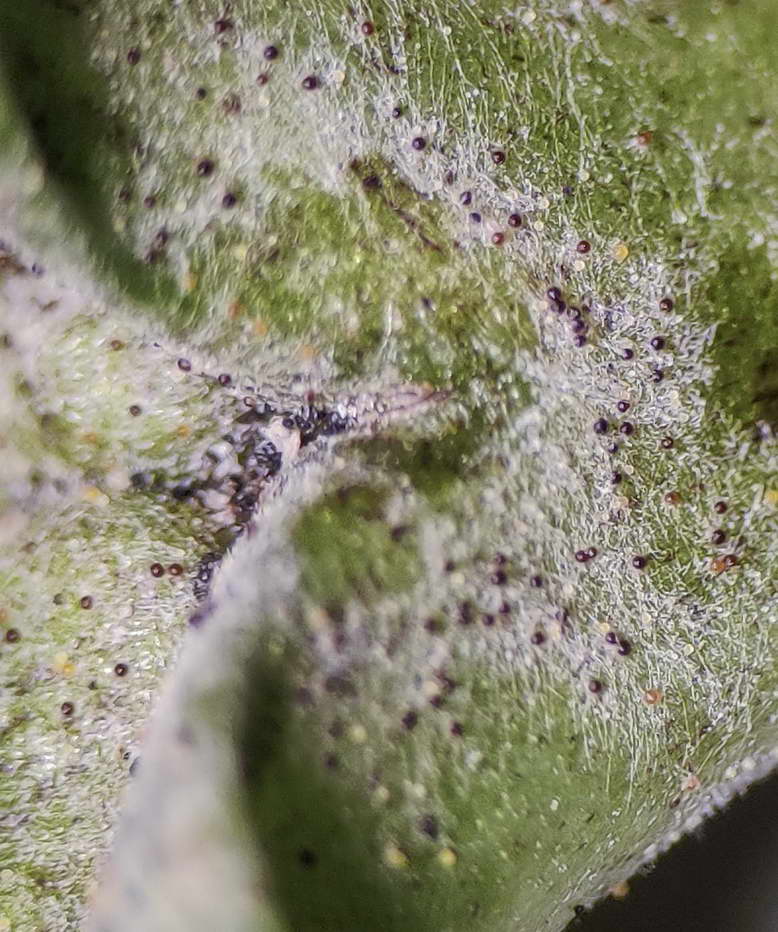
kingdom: Fungi
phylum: Ascomycota
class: Leotiomycetes
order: Helotiales
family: Erysiphaceae
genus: Erysiphe
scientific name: Erysiphe aquilegiae
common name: ranunkel-meldug
